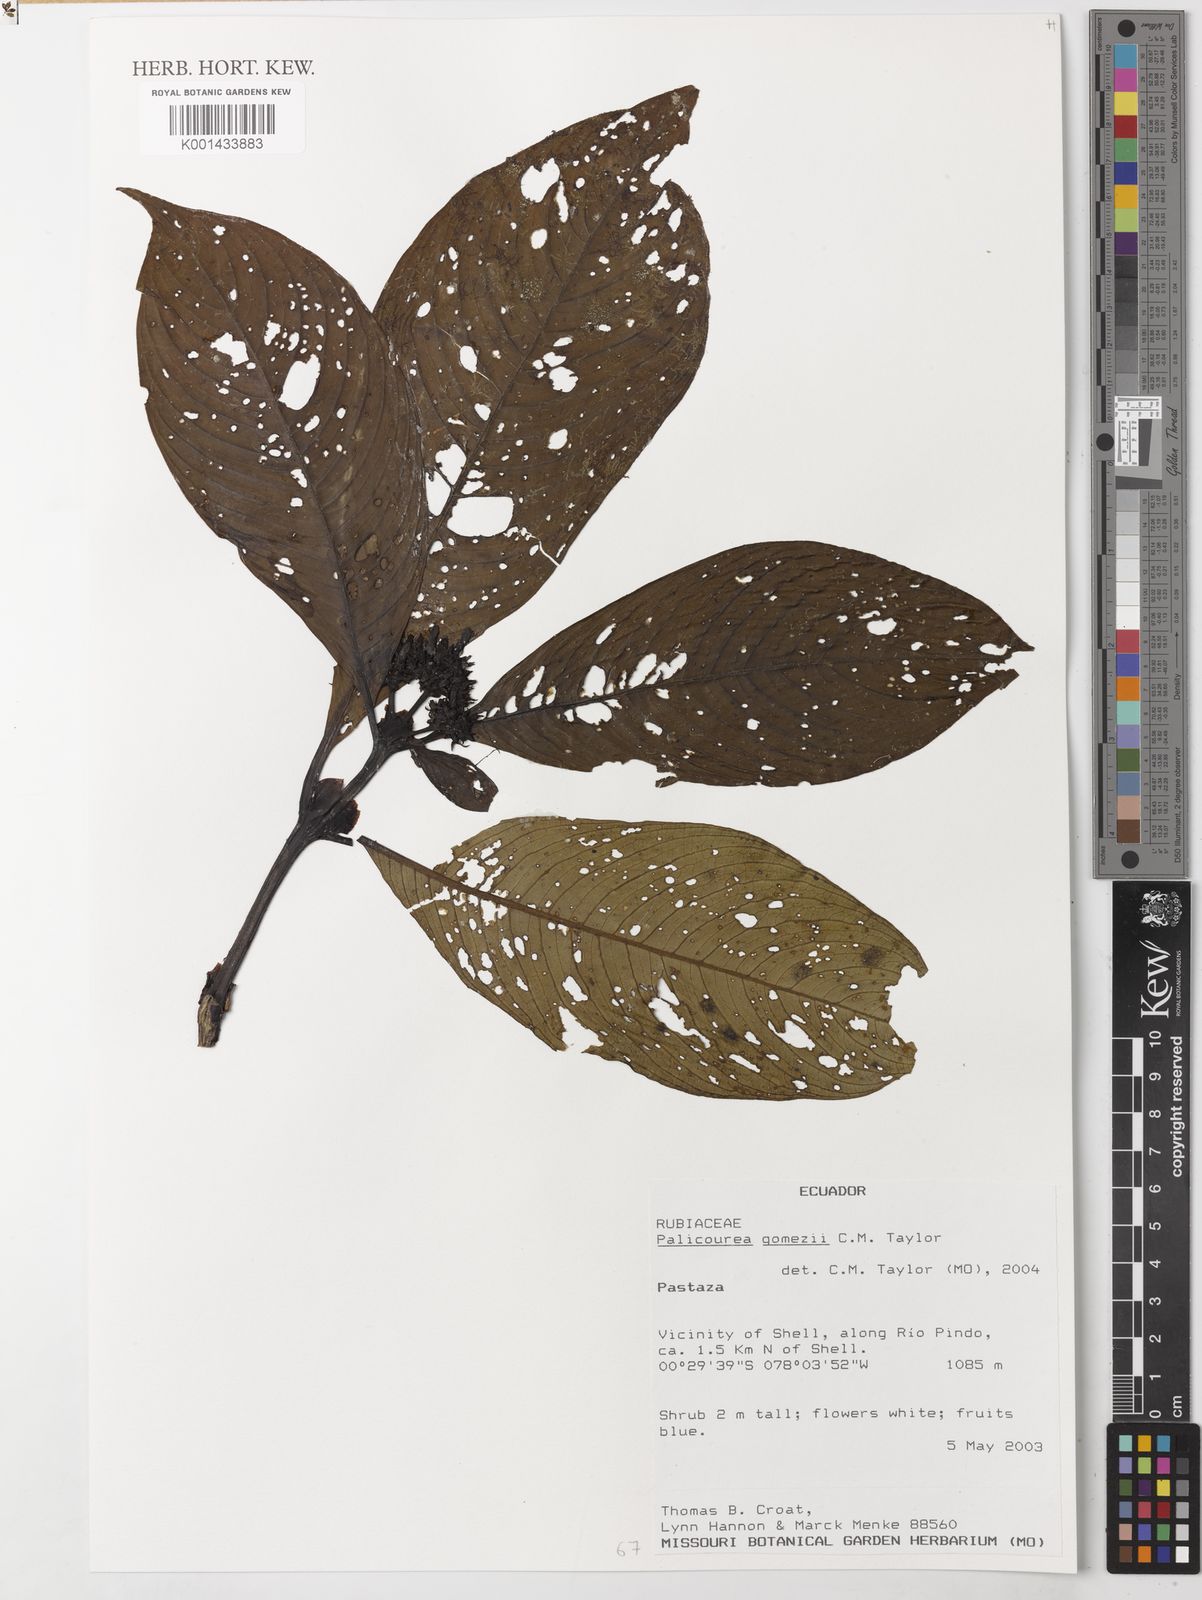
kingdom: Plantae
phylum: Tracheophyta
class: Magnoliopsida
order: Gentianales
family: Rubiaceae
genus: Palicourea
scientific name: Palicourea gomezii
